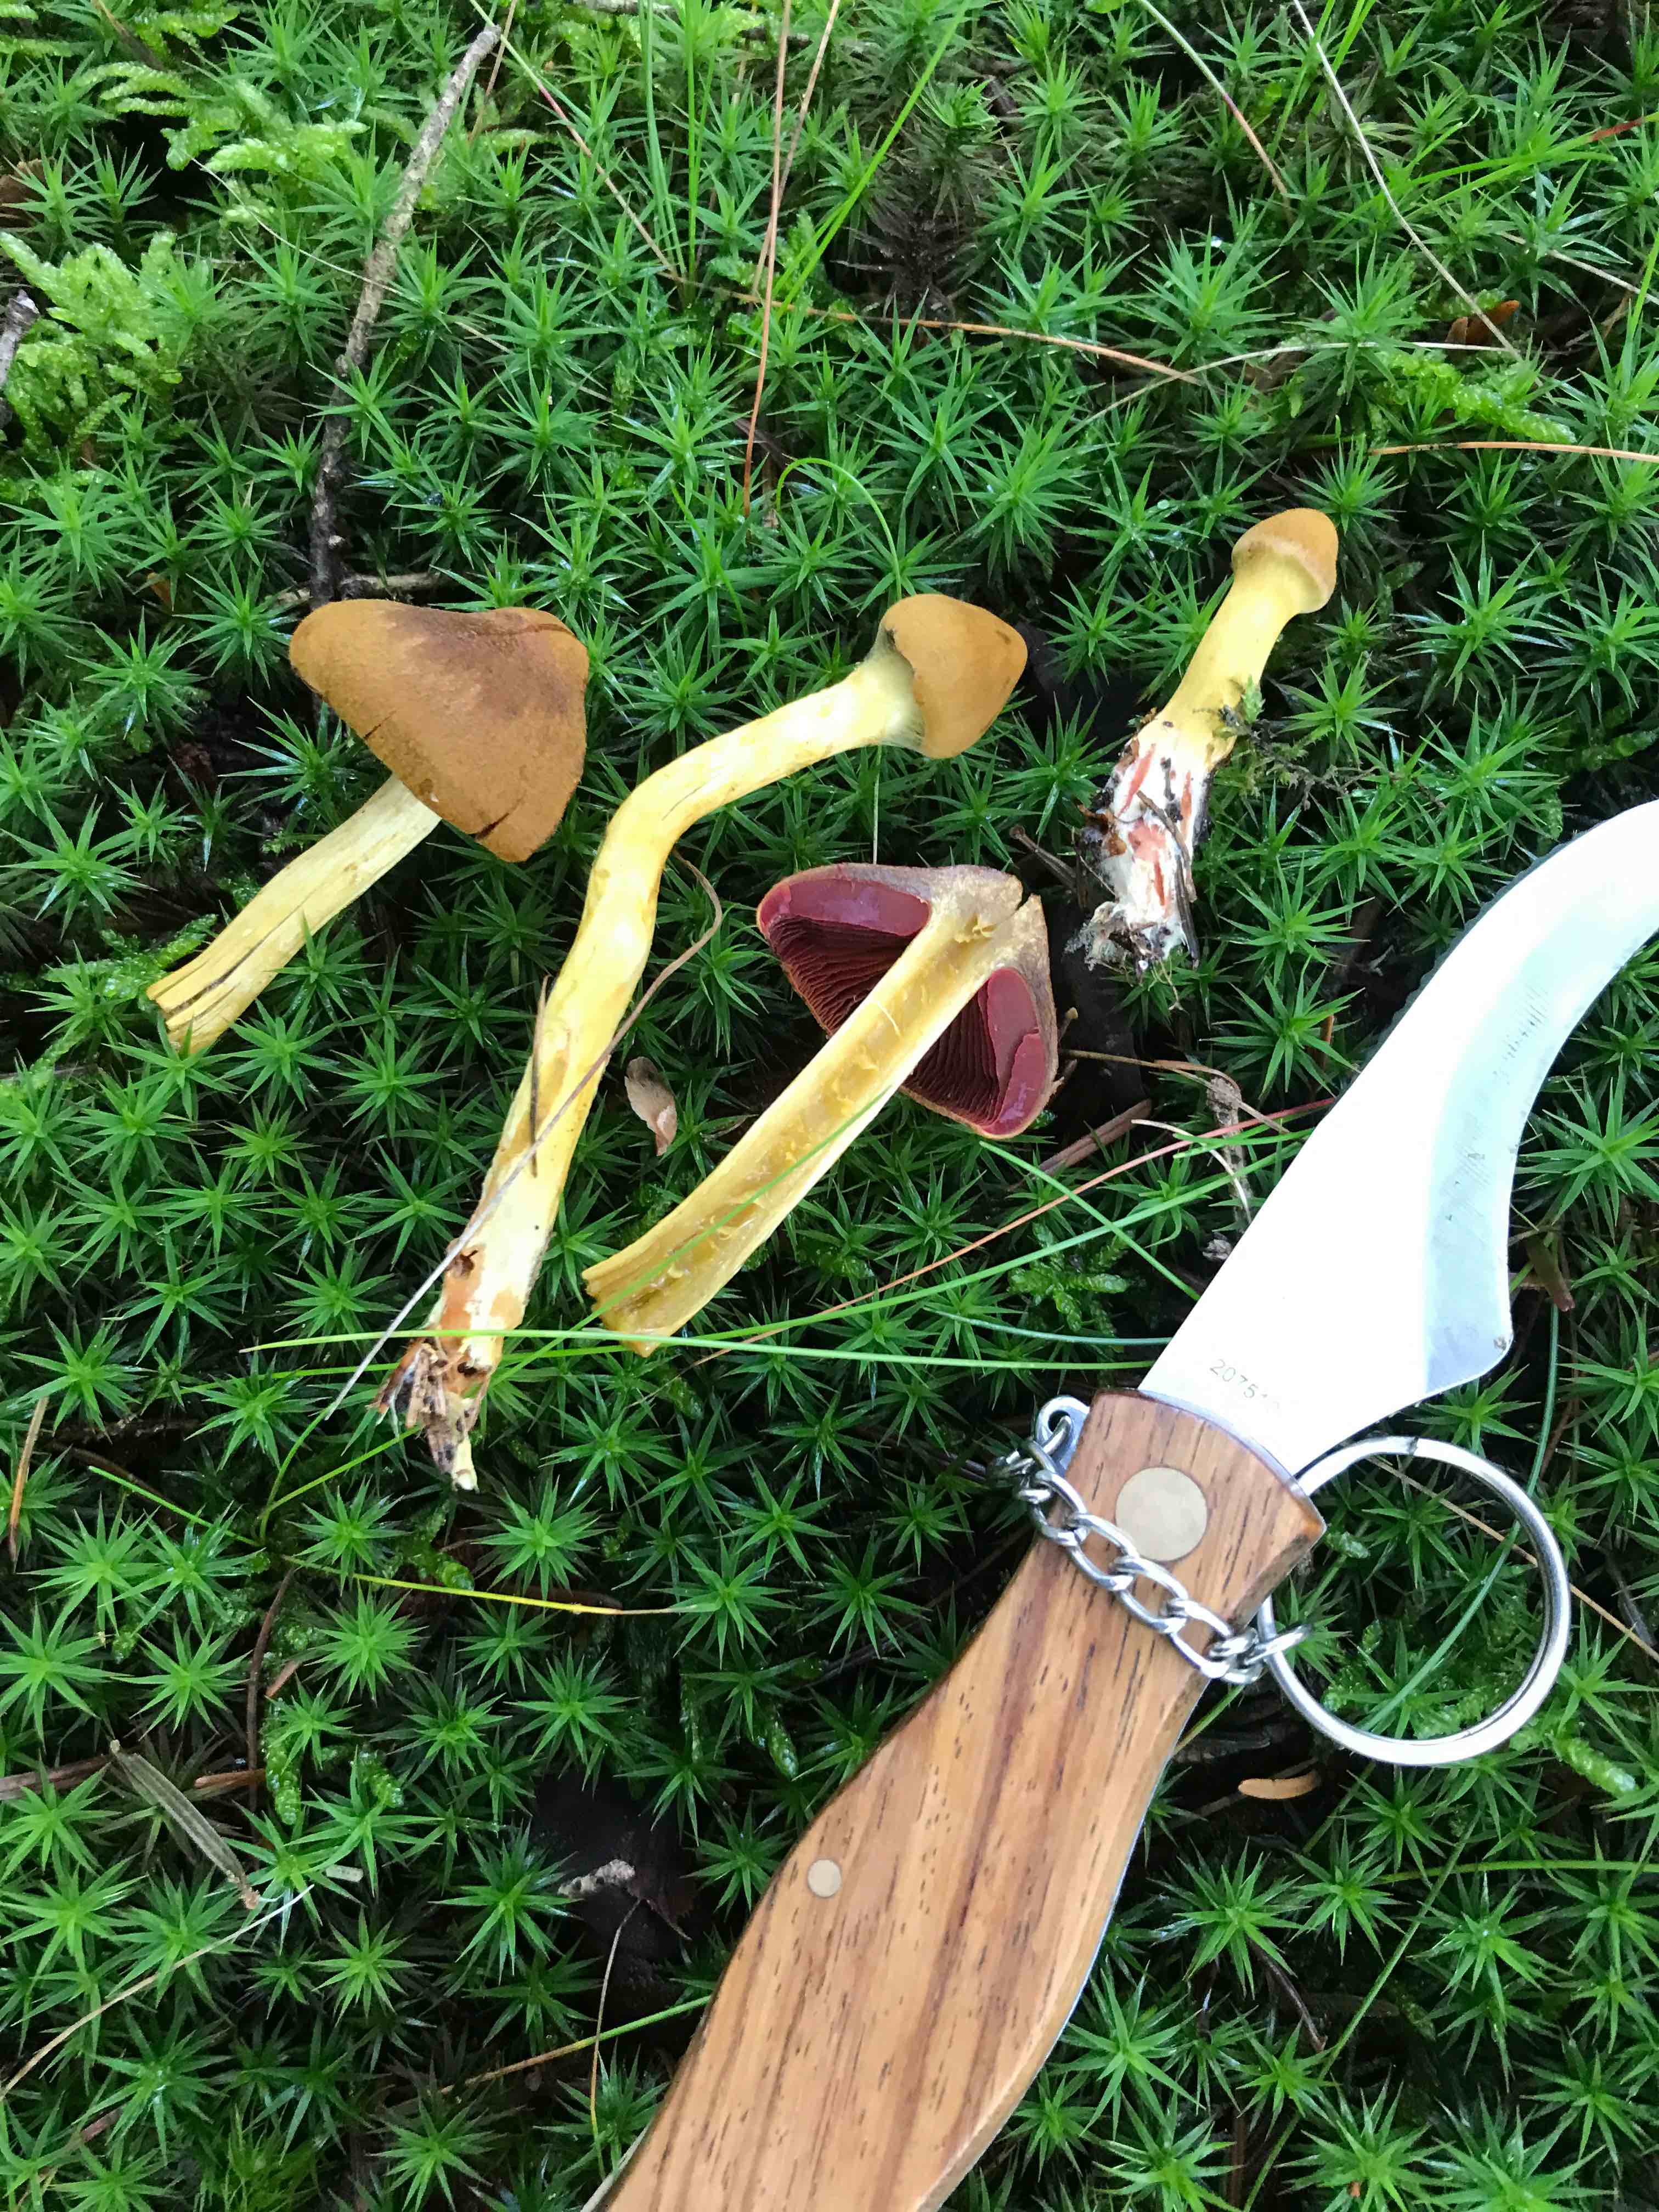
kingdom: Fungi
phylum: Basidiomycota
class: Agaricomycetes
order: Agaricales
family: Cortinariaceae
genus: Cortinarius
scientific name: Cortinarius
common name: cinnoberbladet slørhat
